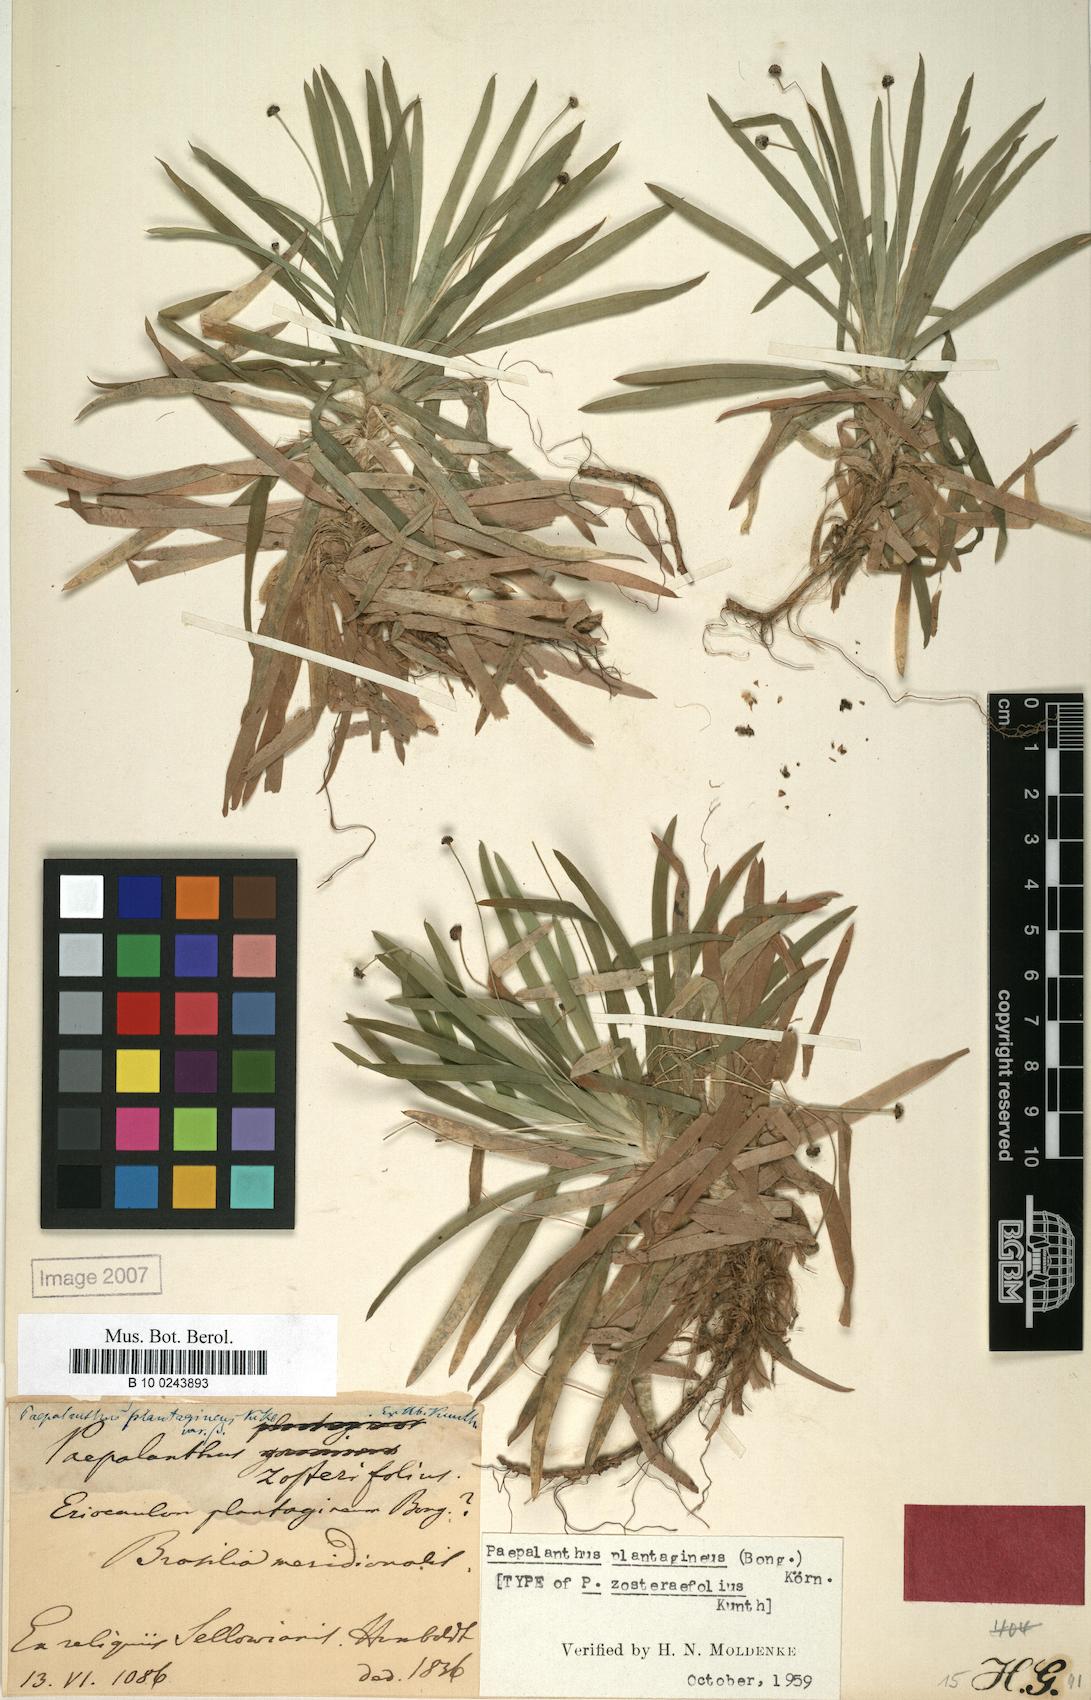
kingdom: Plantae
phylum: Tracheophyta
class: Liliopsida
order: Poales
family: Eriocaulaceae
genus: Paepalanthus
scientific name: Paepalanthus plantagineus
